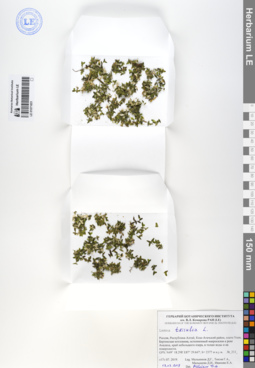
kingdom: Plantae
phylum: Tracheophyta
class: Liliopsida
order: Alismatales
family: Araceae
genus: Lemna
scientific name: Lemna trisulca
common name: Ivy-leaved duckweed
